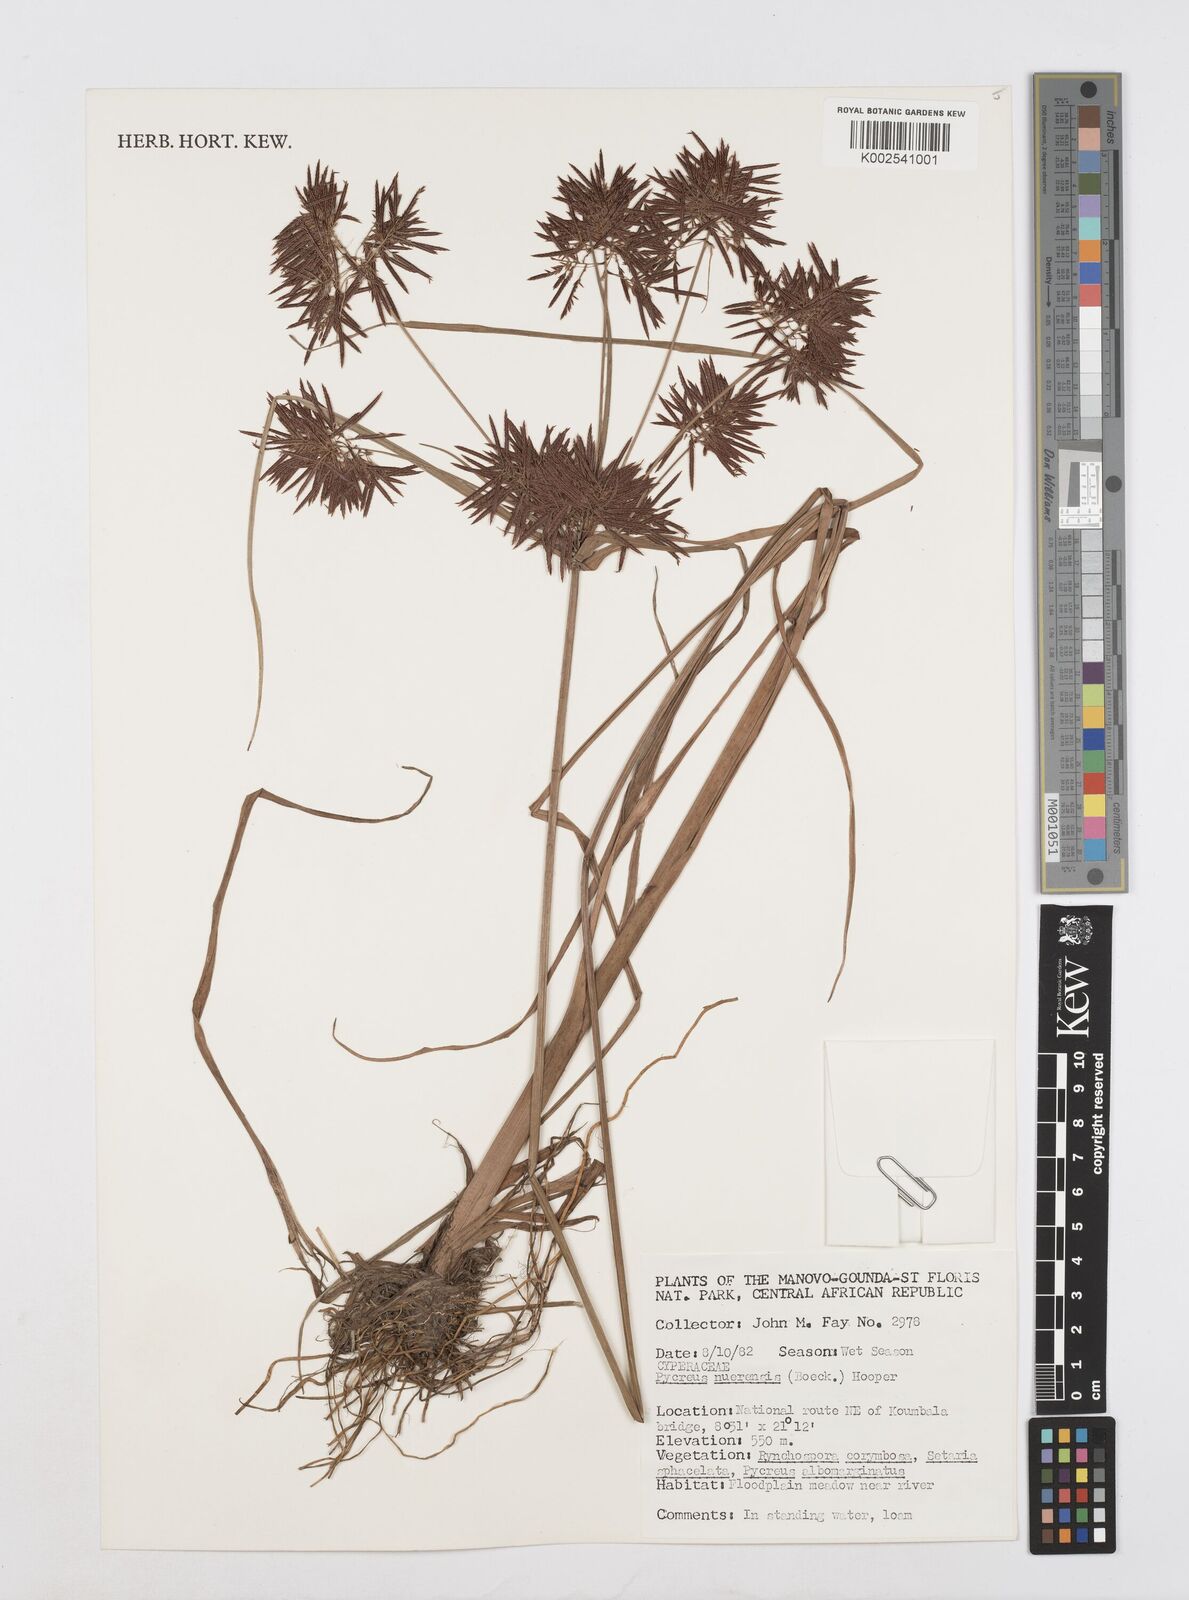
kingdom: Plantae
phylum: Tracheophyta
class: Liliopsida
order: Poales
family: Cyperaceae
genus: Cyperus
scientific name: Cyperus nuerensis
